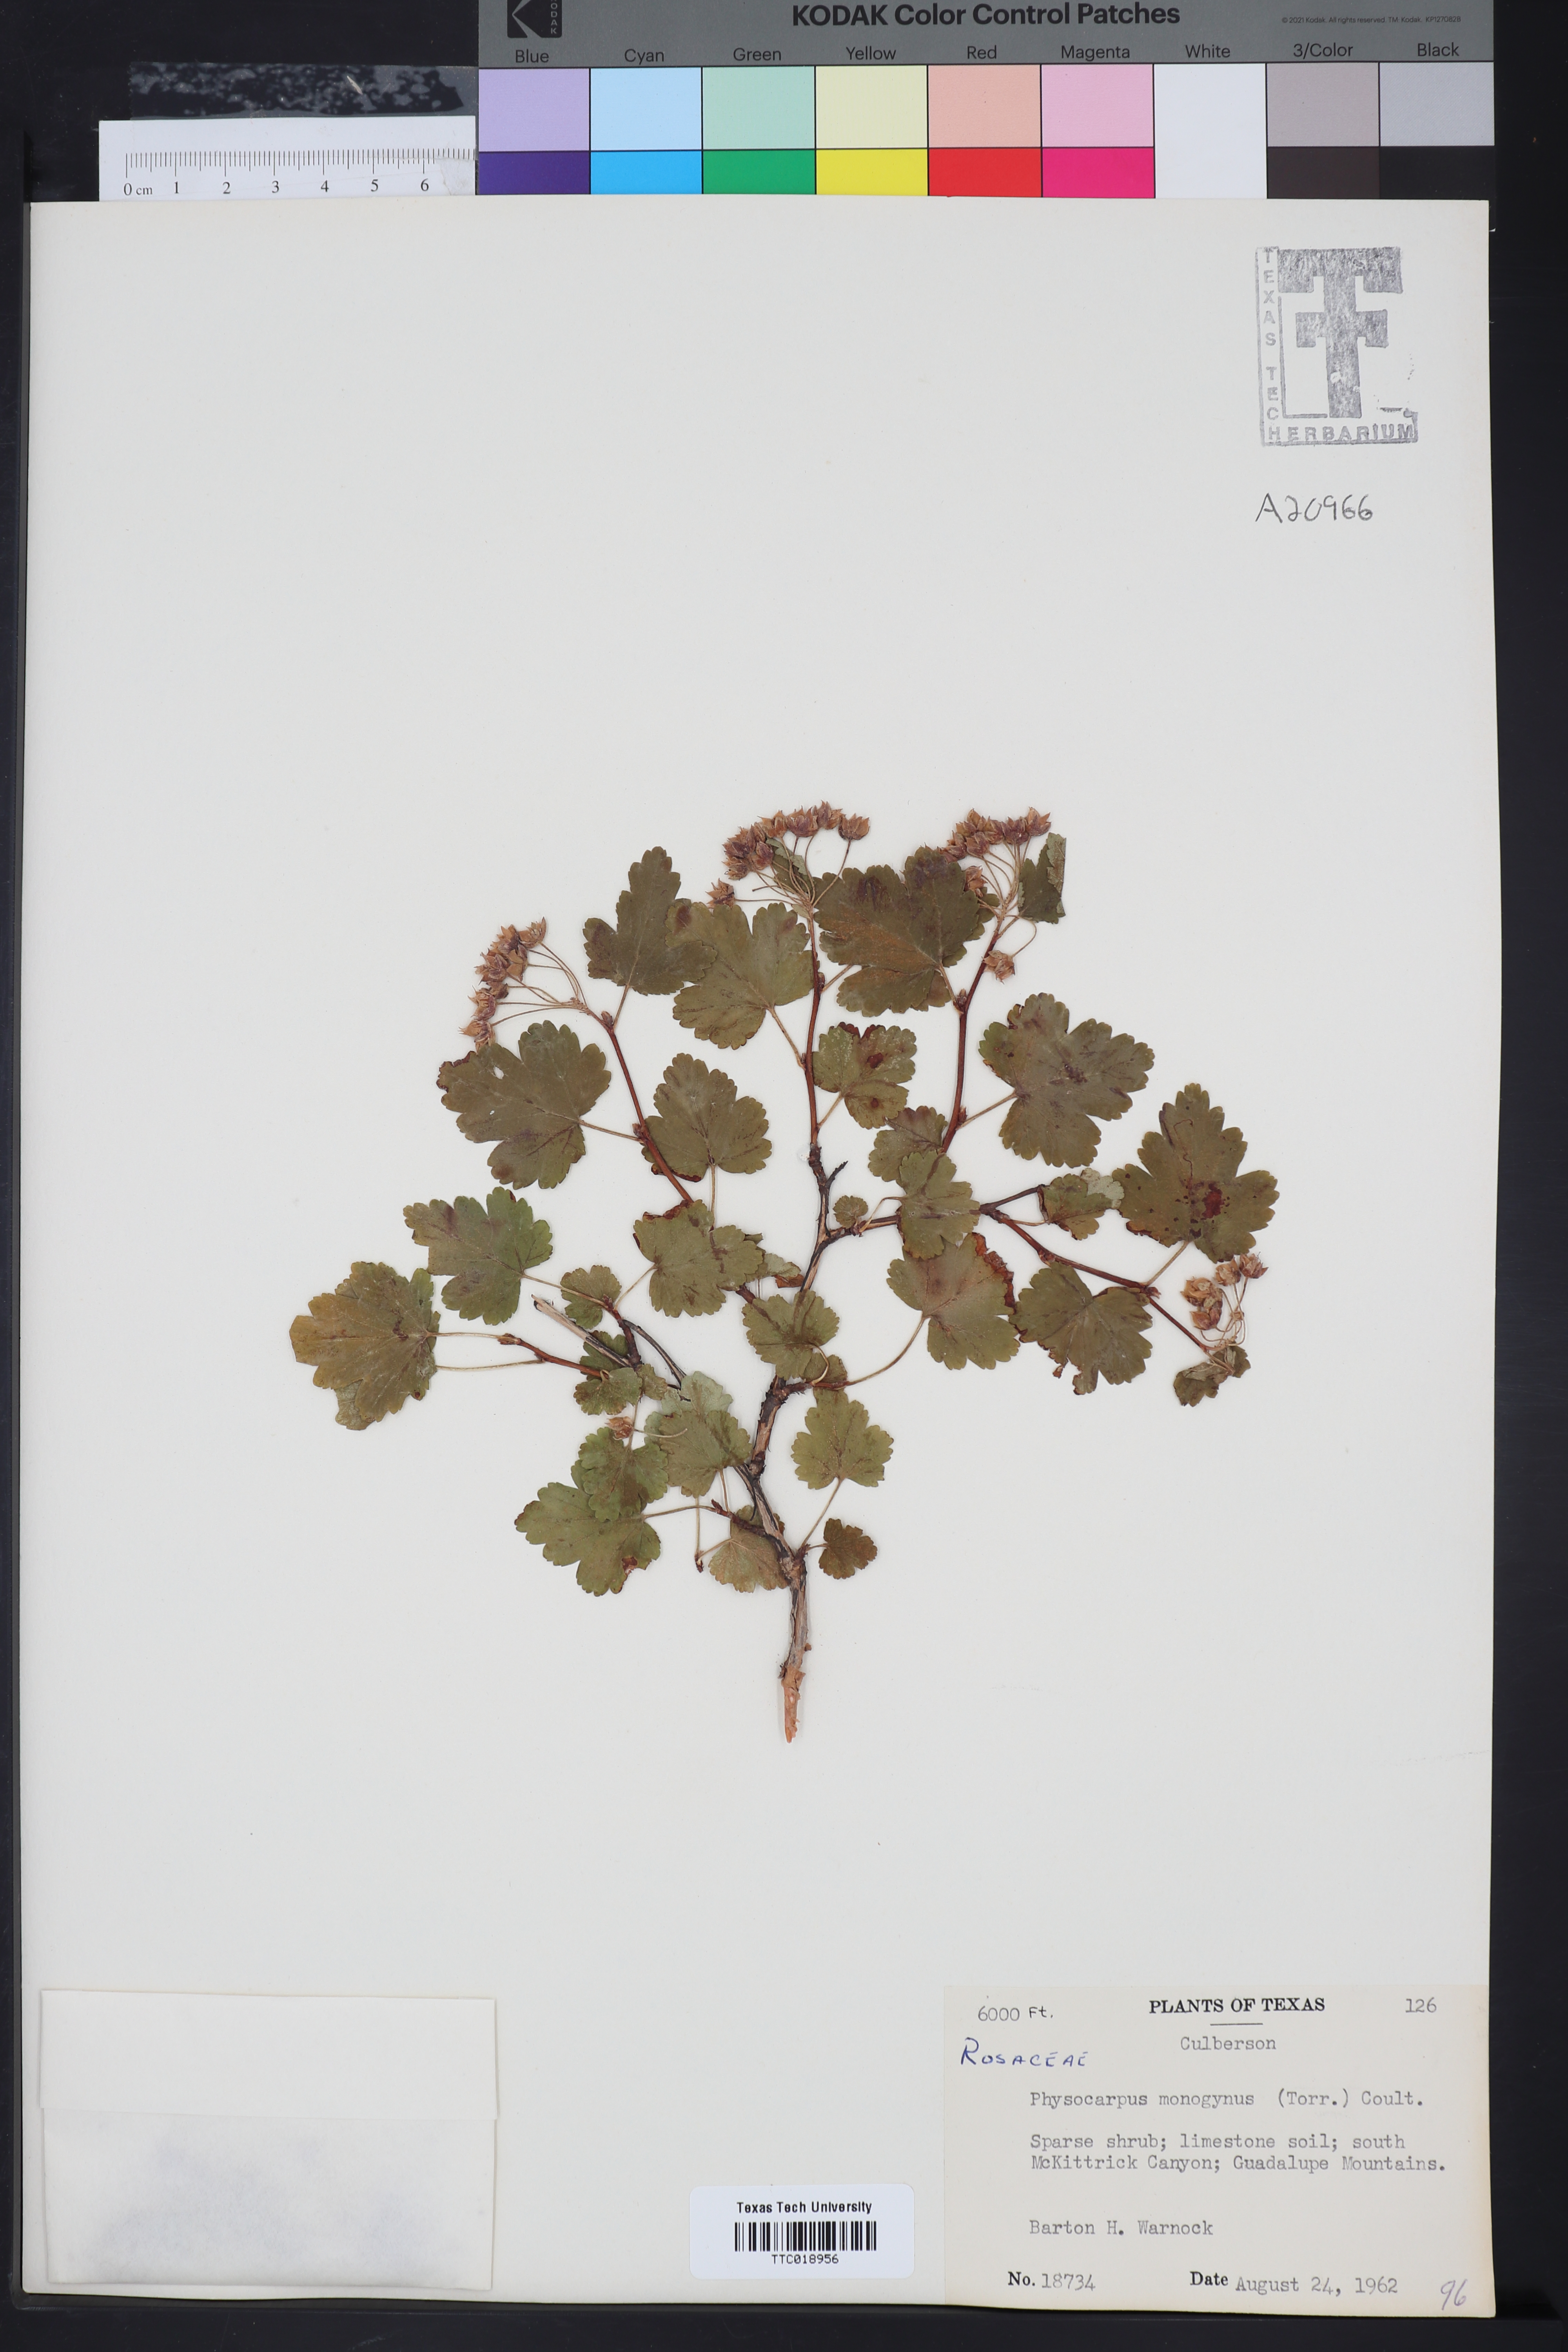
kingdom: Plantae
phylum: Tracheophyta
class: Magnoliopsida
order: Rosales
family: Rosaceae
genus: Physocarpus
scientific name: Physocarpus monogynus
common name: Mountain ninebark
